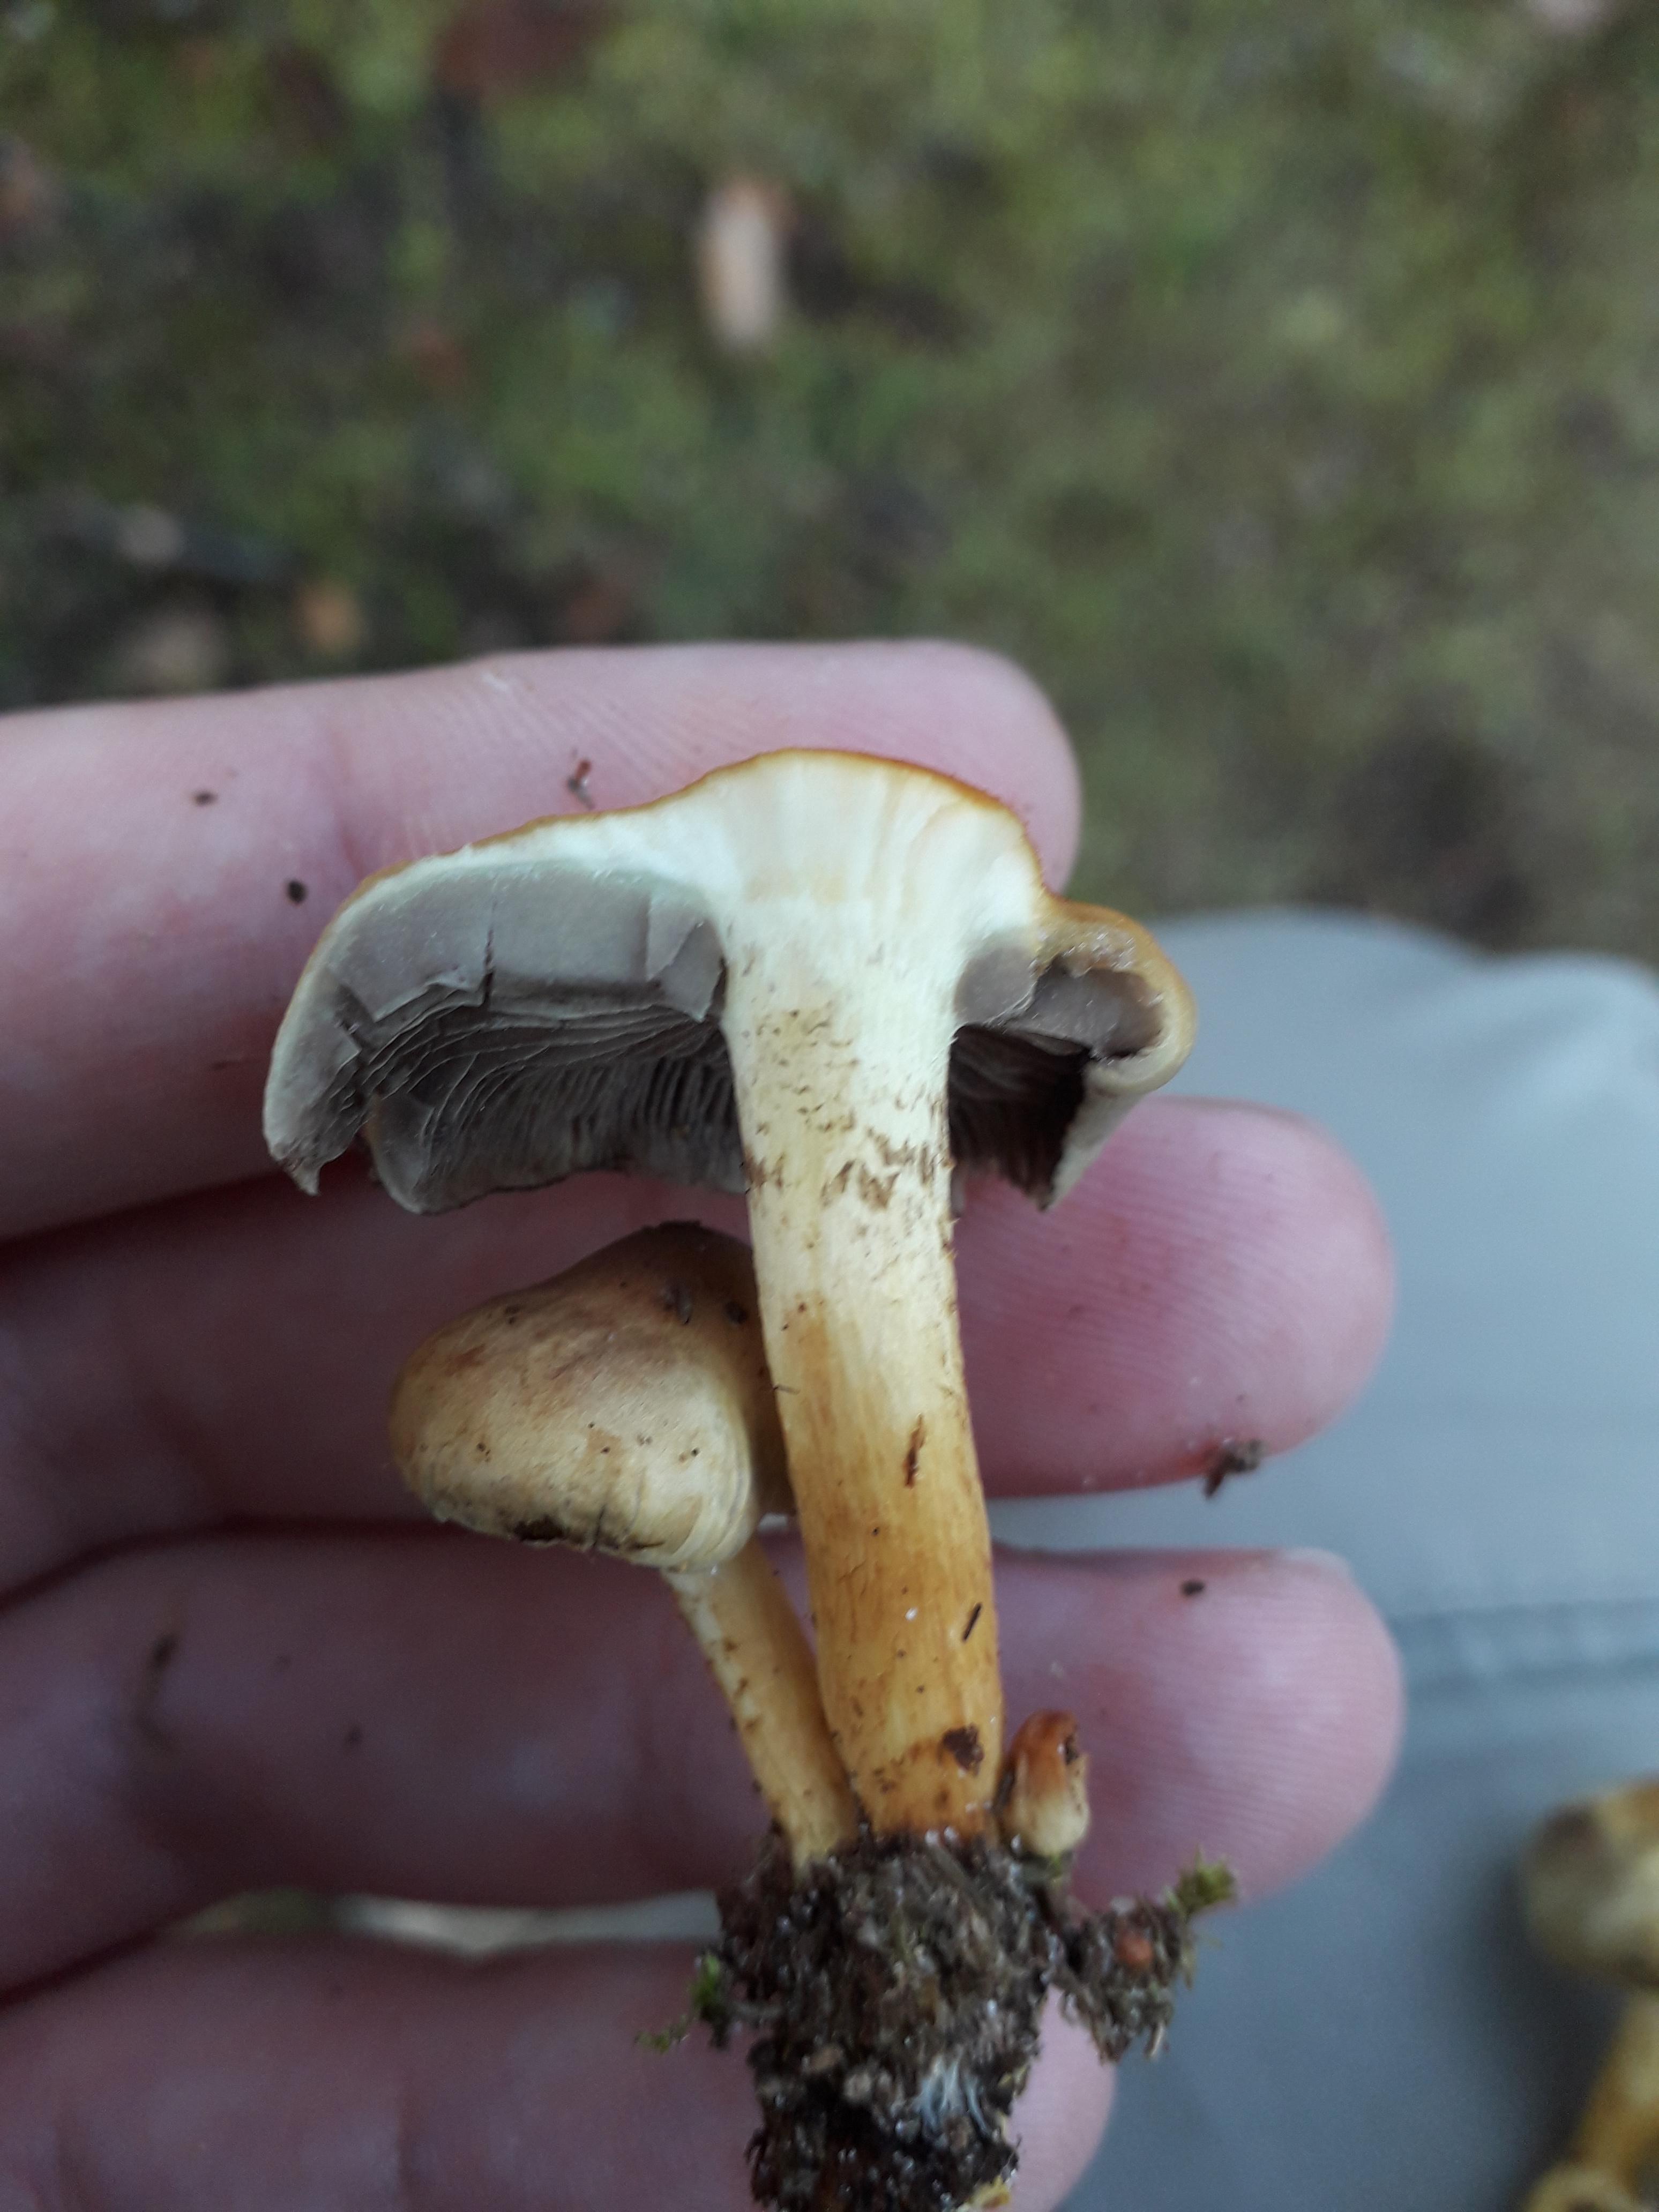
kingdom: Fungi
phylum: Basidiomycota
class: Agaricomycetes
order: Agaricales
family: Strophariaceae
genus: Hypholoma
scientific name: Hypholoma
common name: svovlhat
